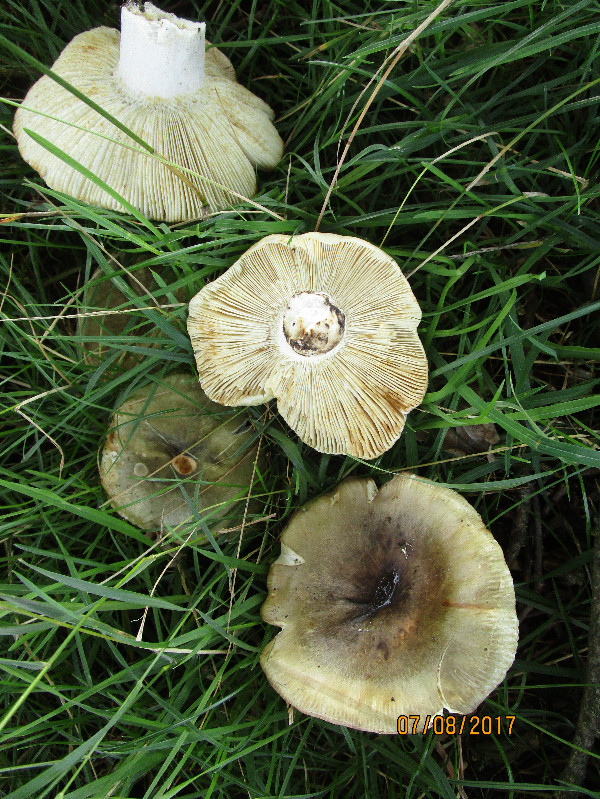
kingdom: Fungi
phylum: Basidiomycota
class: Agaricomycetes
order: Russulales
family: Russulaceae
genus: Russula
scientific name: Russula heterophylla
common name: gaffelbladet skørhat
